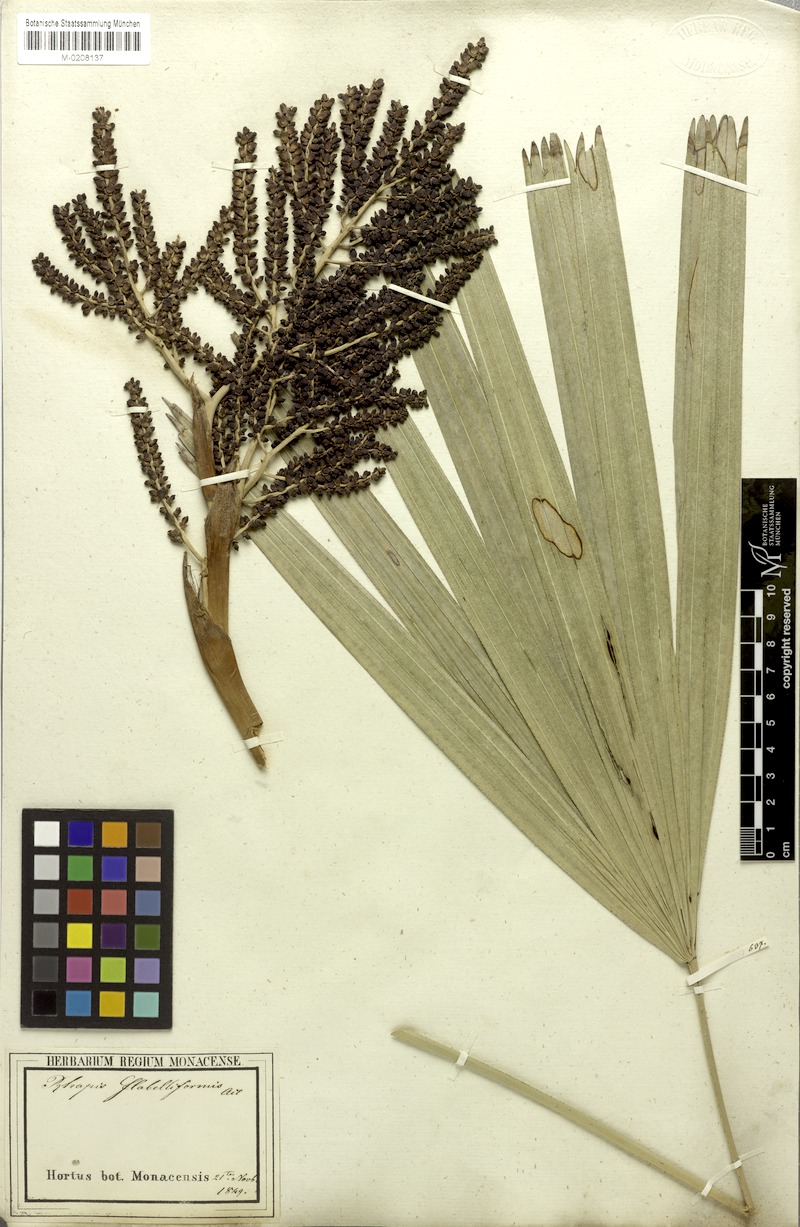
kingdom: Plantae
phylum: Tracheophyta
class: Liliopsida
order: Arecales
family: Arecaceae
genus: Rhapis
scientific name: Rhapis excelsa
